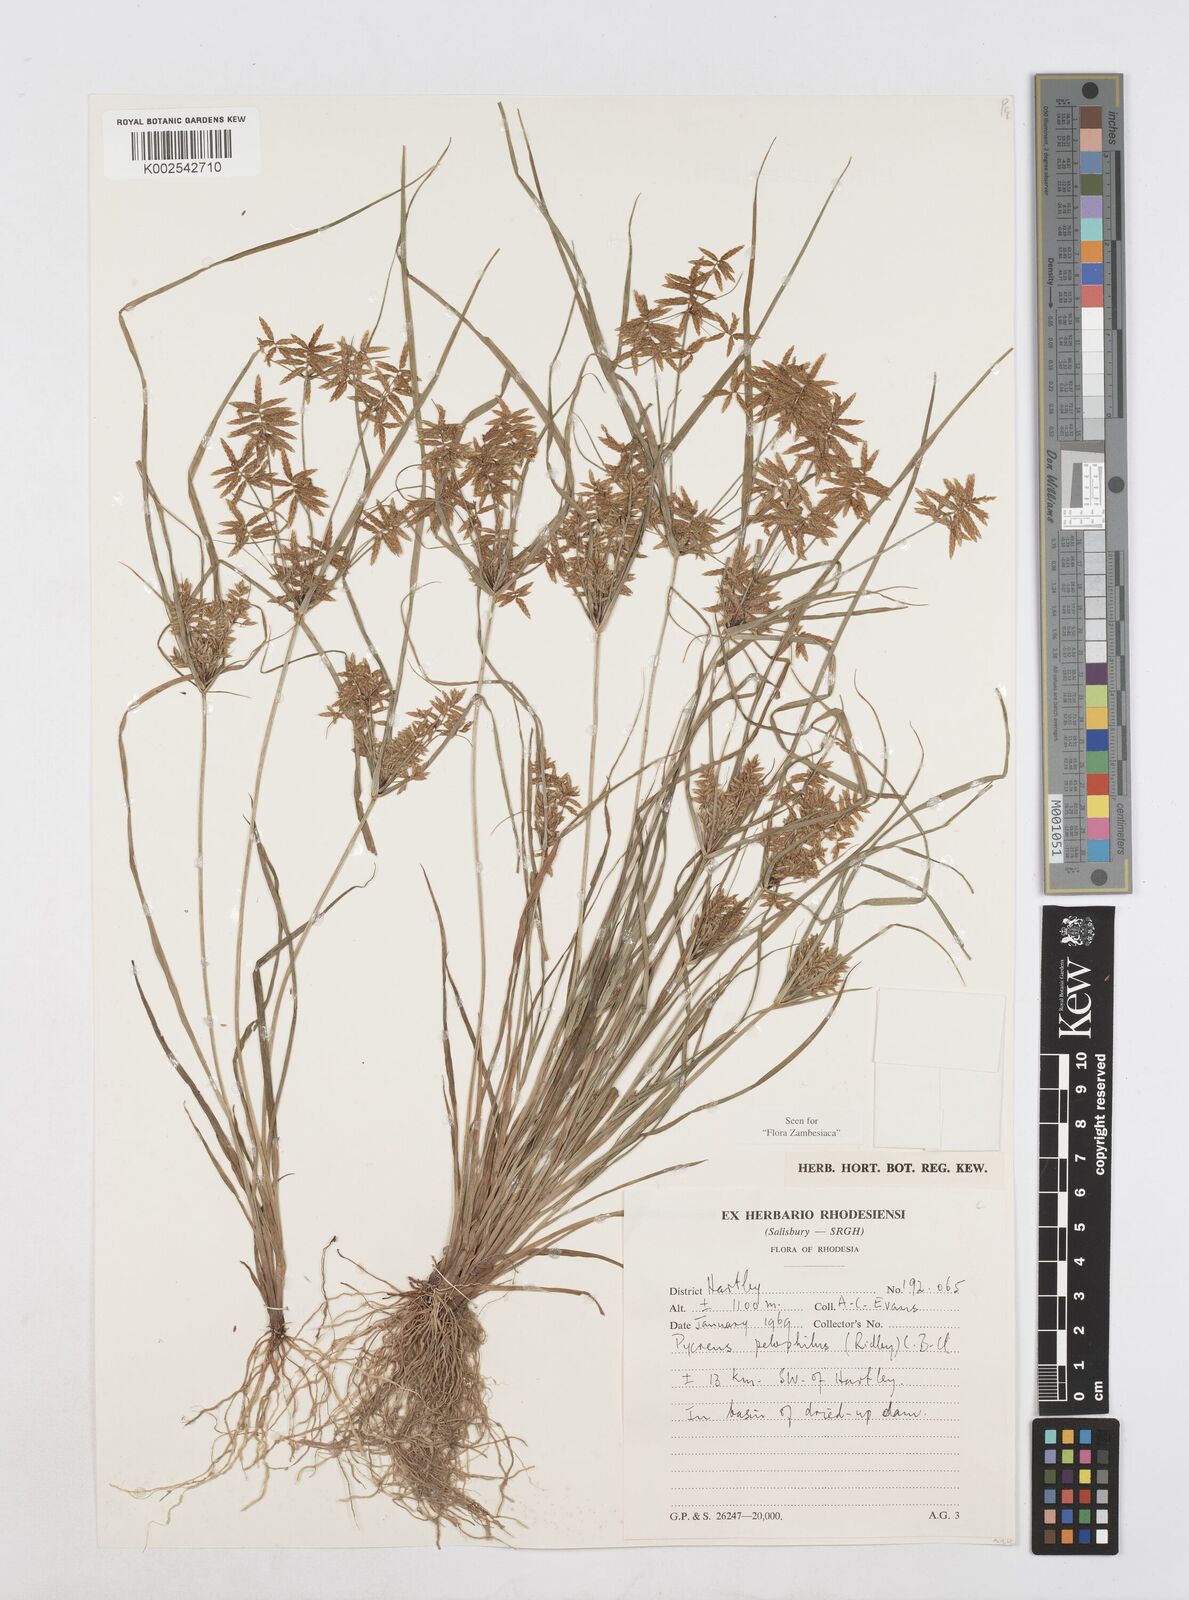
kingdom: Plantae
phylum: Tracheophyta
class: Liliopsida
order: Poales
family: Cyperaceae
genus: Cyperus
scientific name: Cyperus pelophilus
